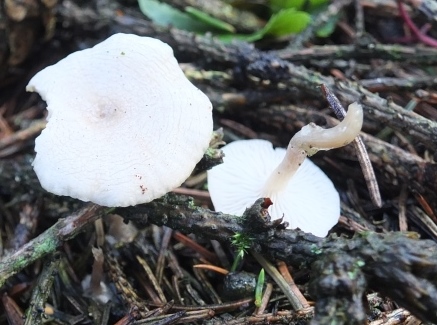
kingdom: Fungi
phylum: Basidiomycota
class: Agaricomycetes
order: Agaricales
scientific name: Agaricales
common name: champignonordenen
